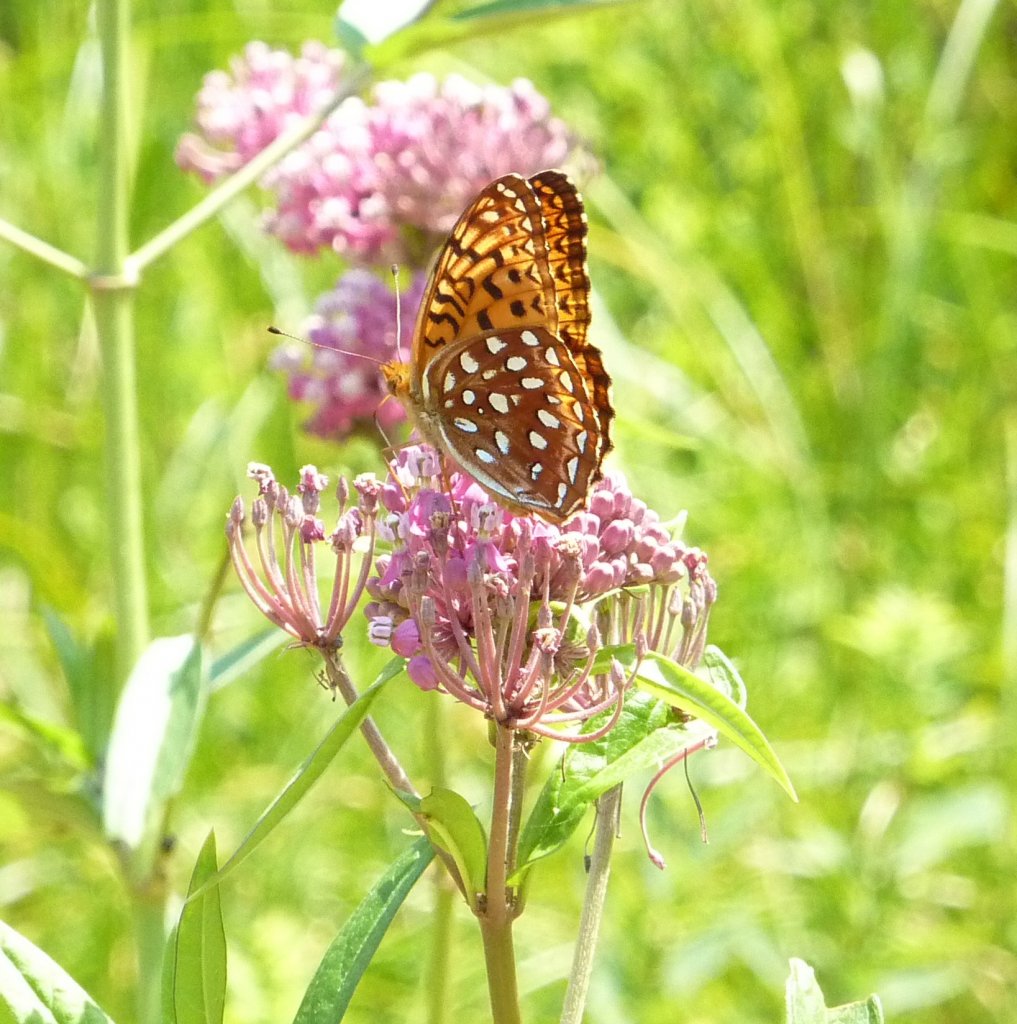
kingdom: Animalia
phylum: Arthropoda
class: Insecta
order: Lepidoptera
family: Nymphalidae
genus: Speyeria
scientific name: Speyeria aphrodite
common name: Aphrodite Fritillary
